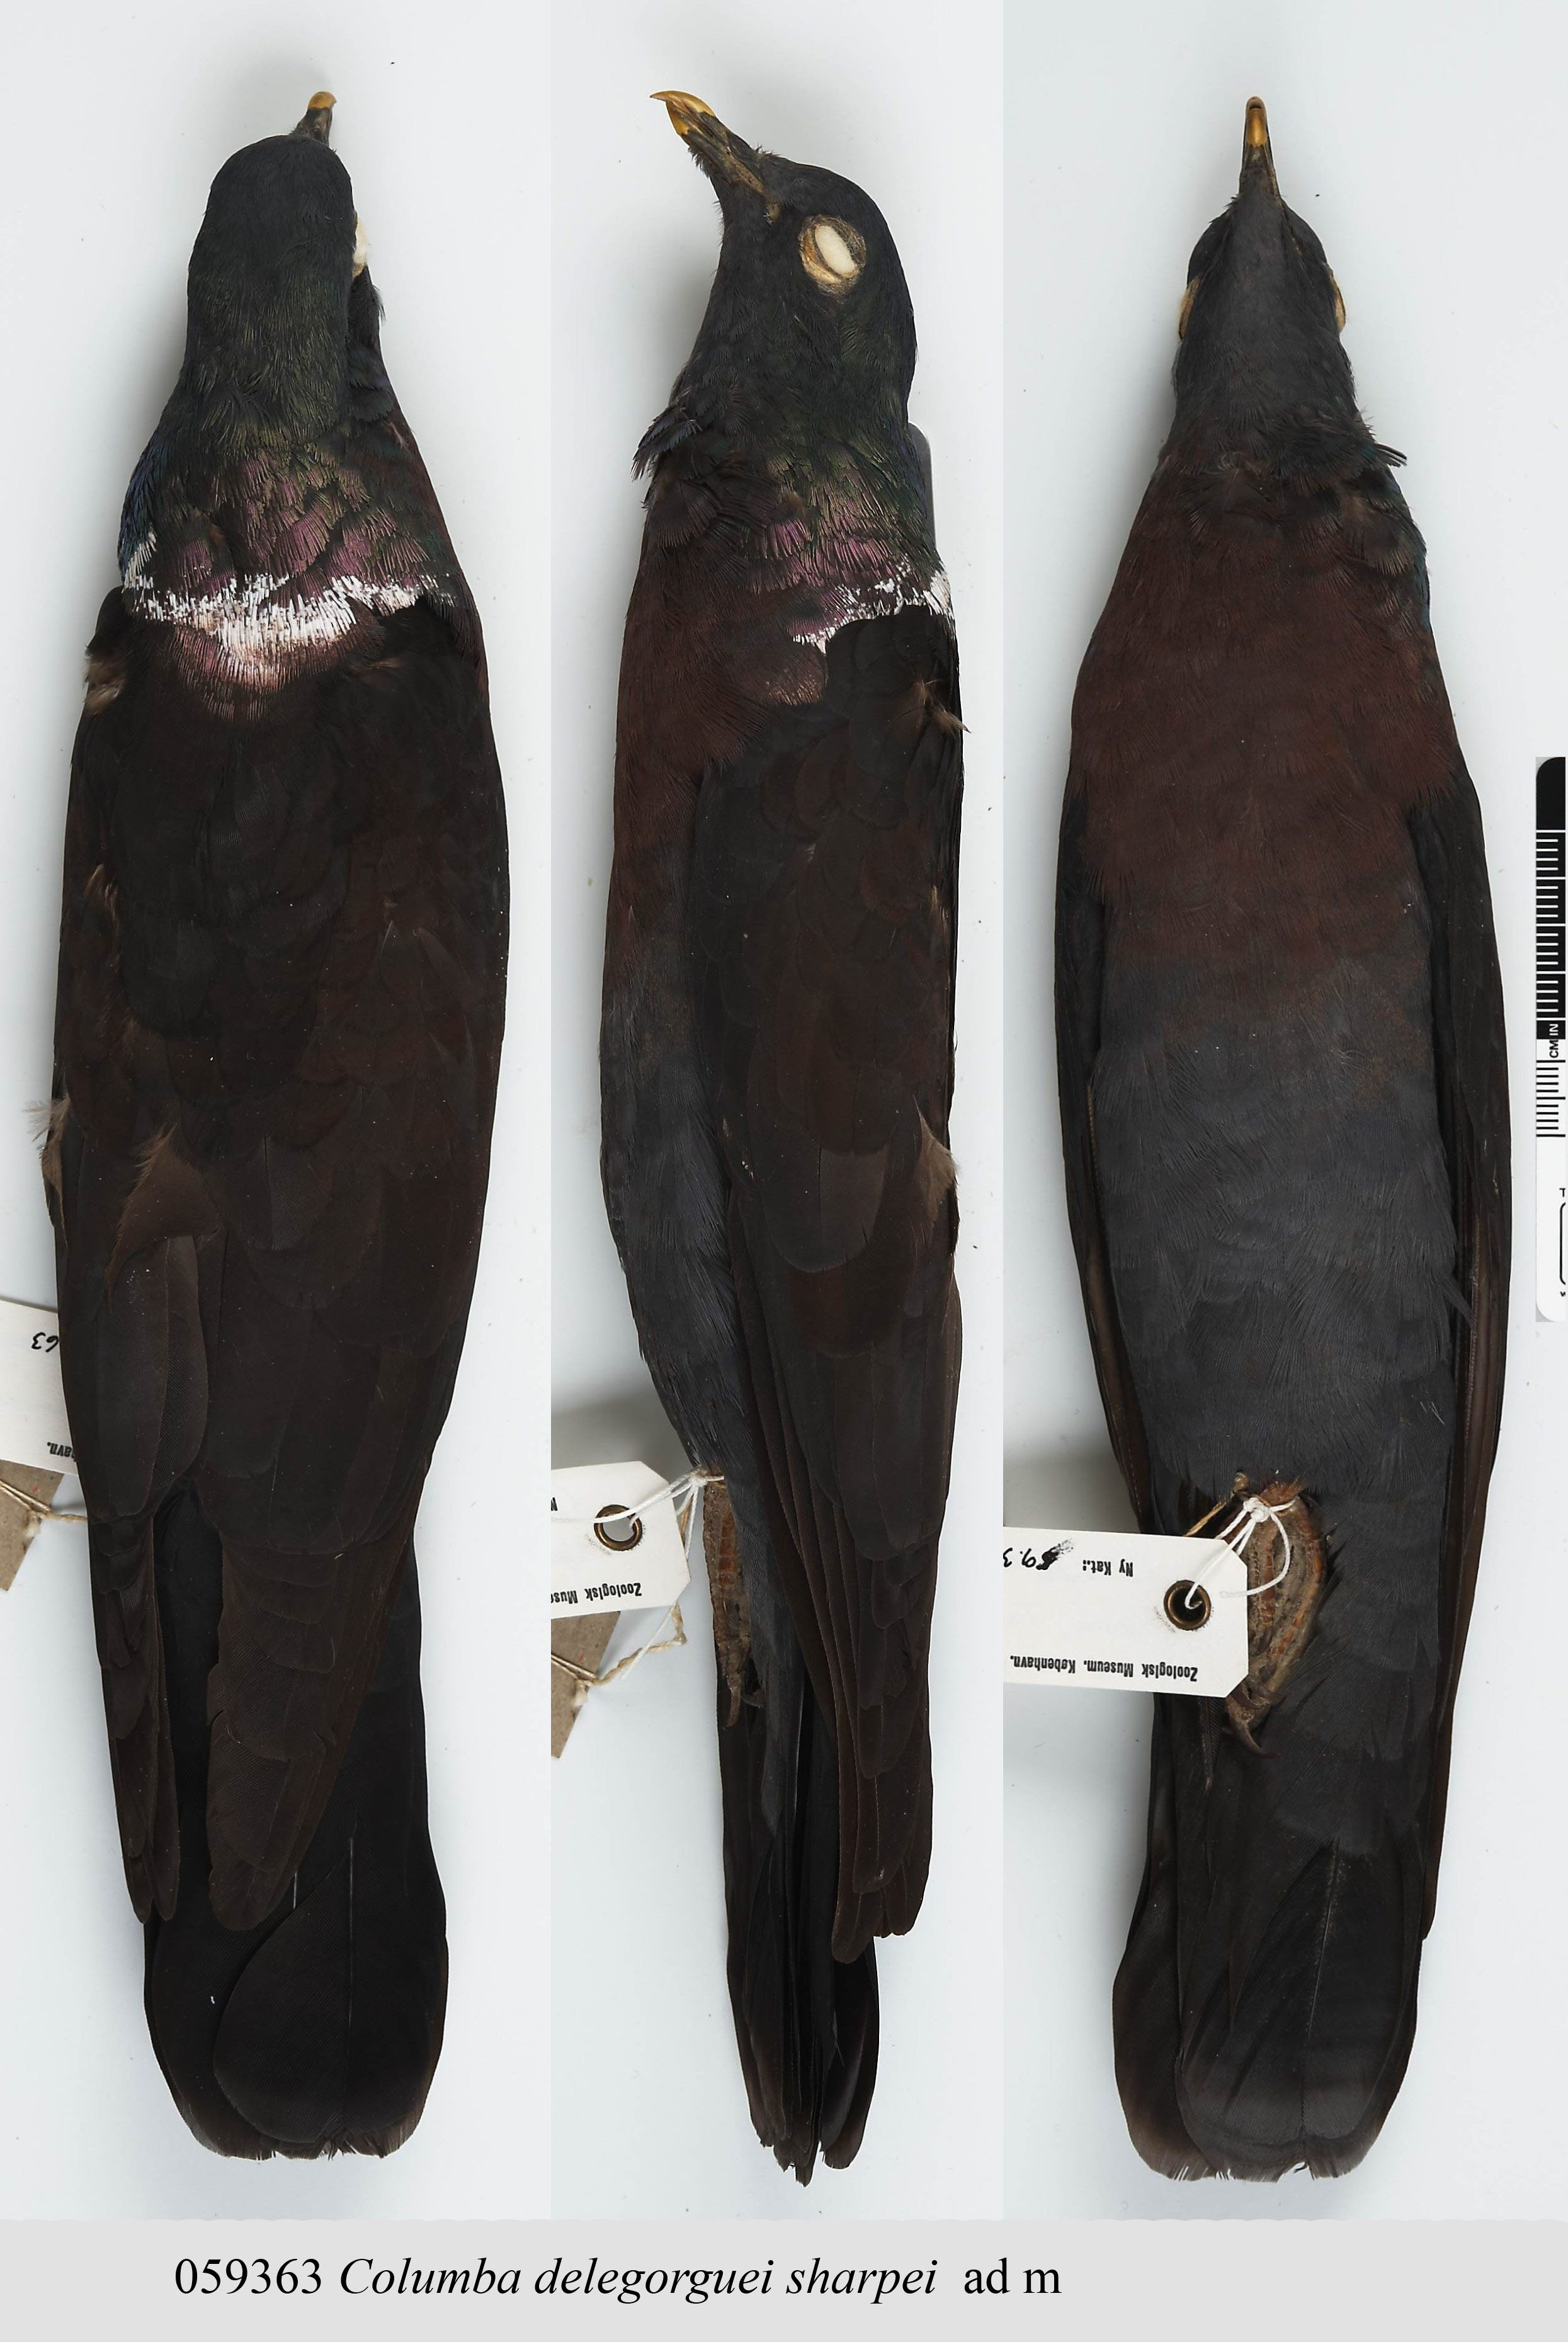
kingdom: Animalia
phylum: Chordata
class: Aves
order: Columbiformes
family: Columbidae
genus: Columba
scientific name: Columba delegorguei
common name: Eastern bronze-naped pigeon
